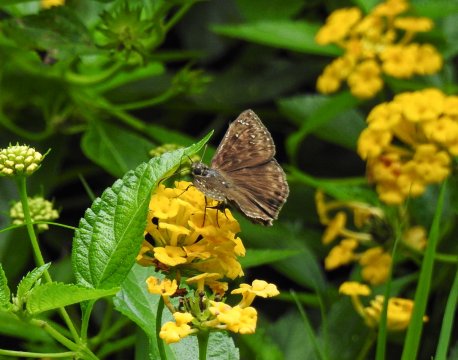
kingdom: Animalia
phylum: Arthropoda
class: Insecta
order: Lepidoptera
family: Hesperiidae
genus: Gesta
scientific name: Gesta
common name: Horace's Duskywing
